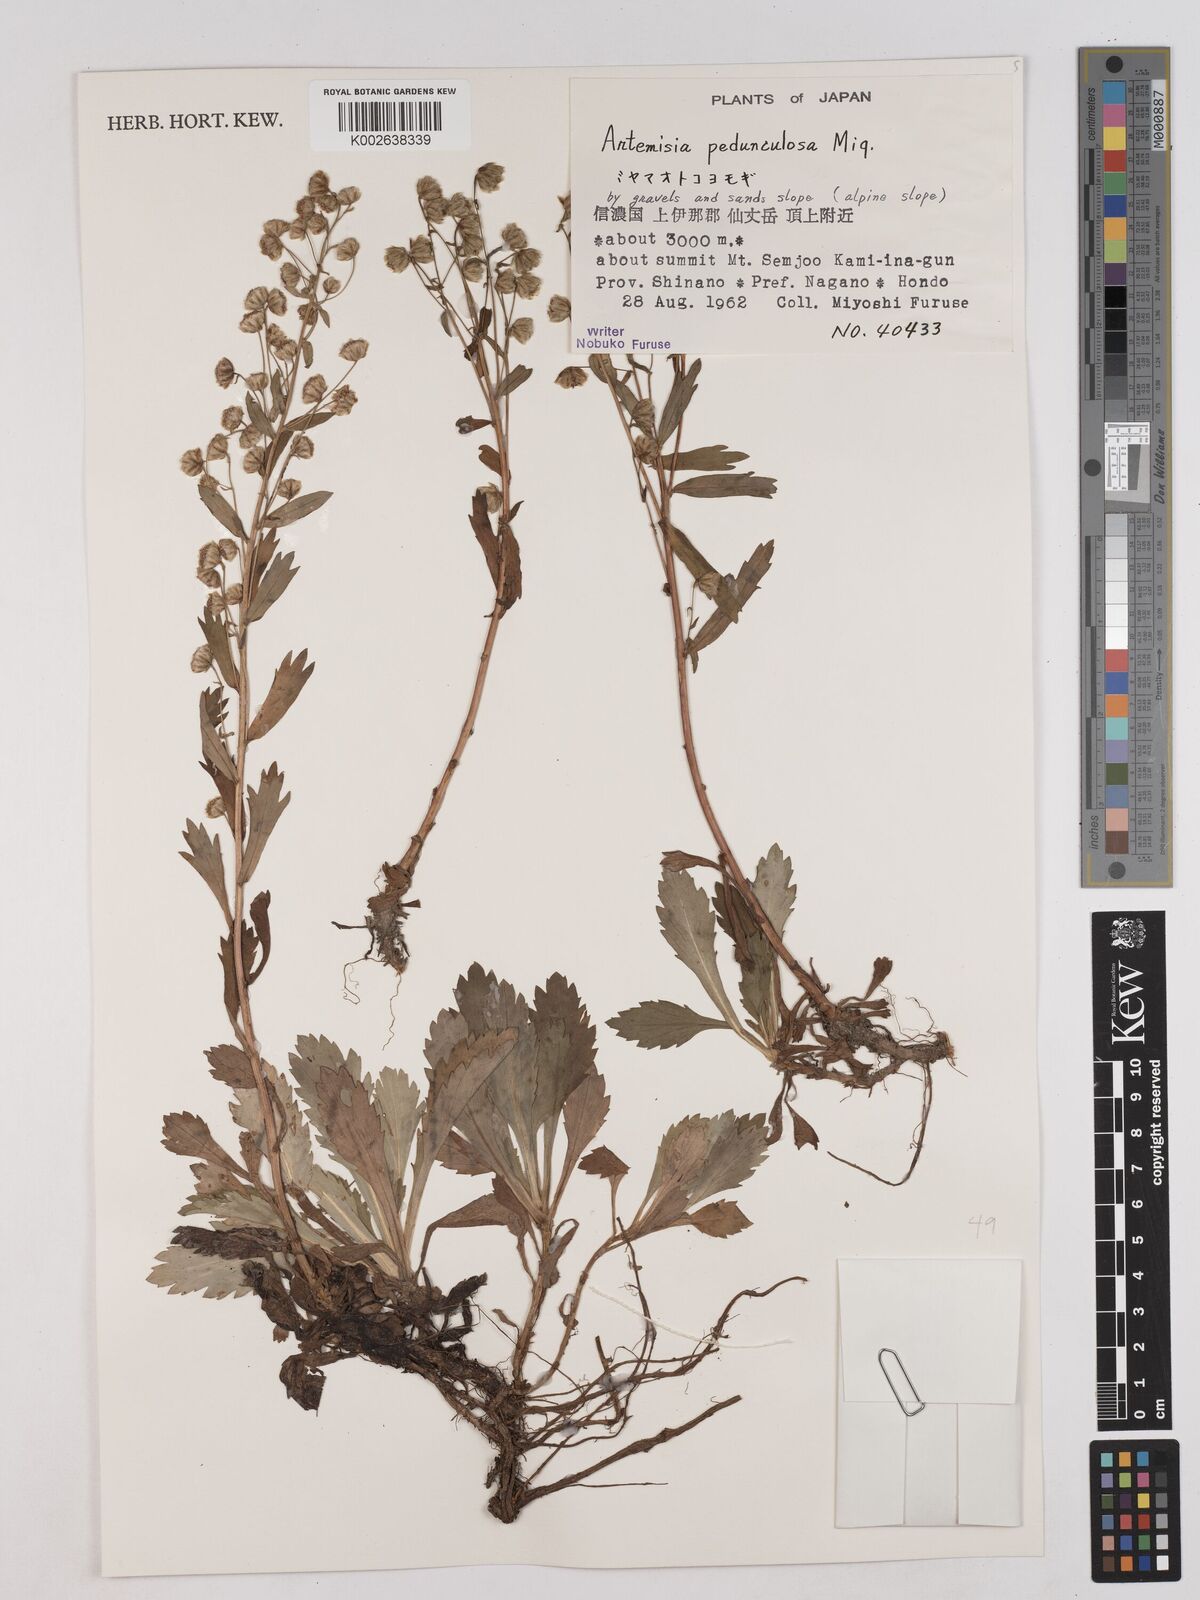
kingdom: Plantae
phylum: Tracheophyta
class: Magnoliopsida
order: Asterales
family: Asteraceae
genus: Artemisia
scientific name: Artemisia pedunculosa
